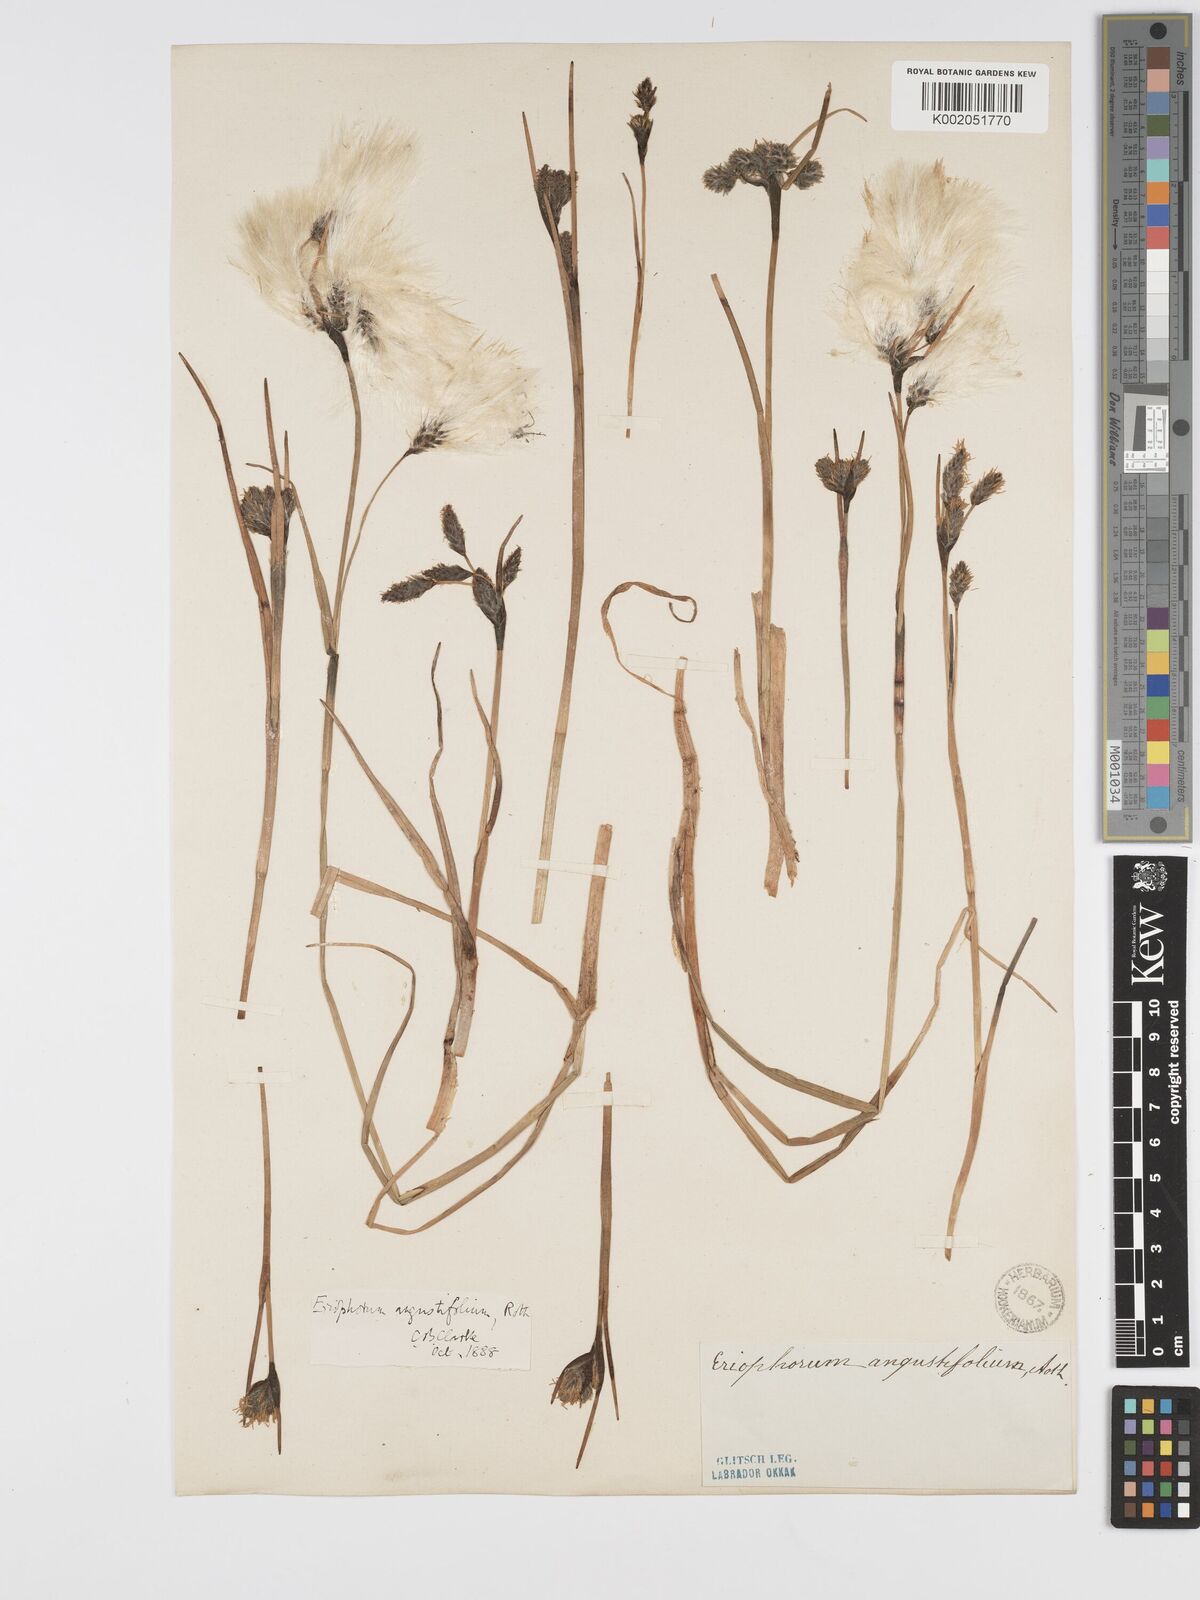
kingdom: Plantae
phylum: Tracheophyta
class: Liliopsida
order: Poales
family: Cyperaceae
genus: Eriophorum
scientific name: Eriophorum angustifolium
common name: Common cottongrass
